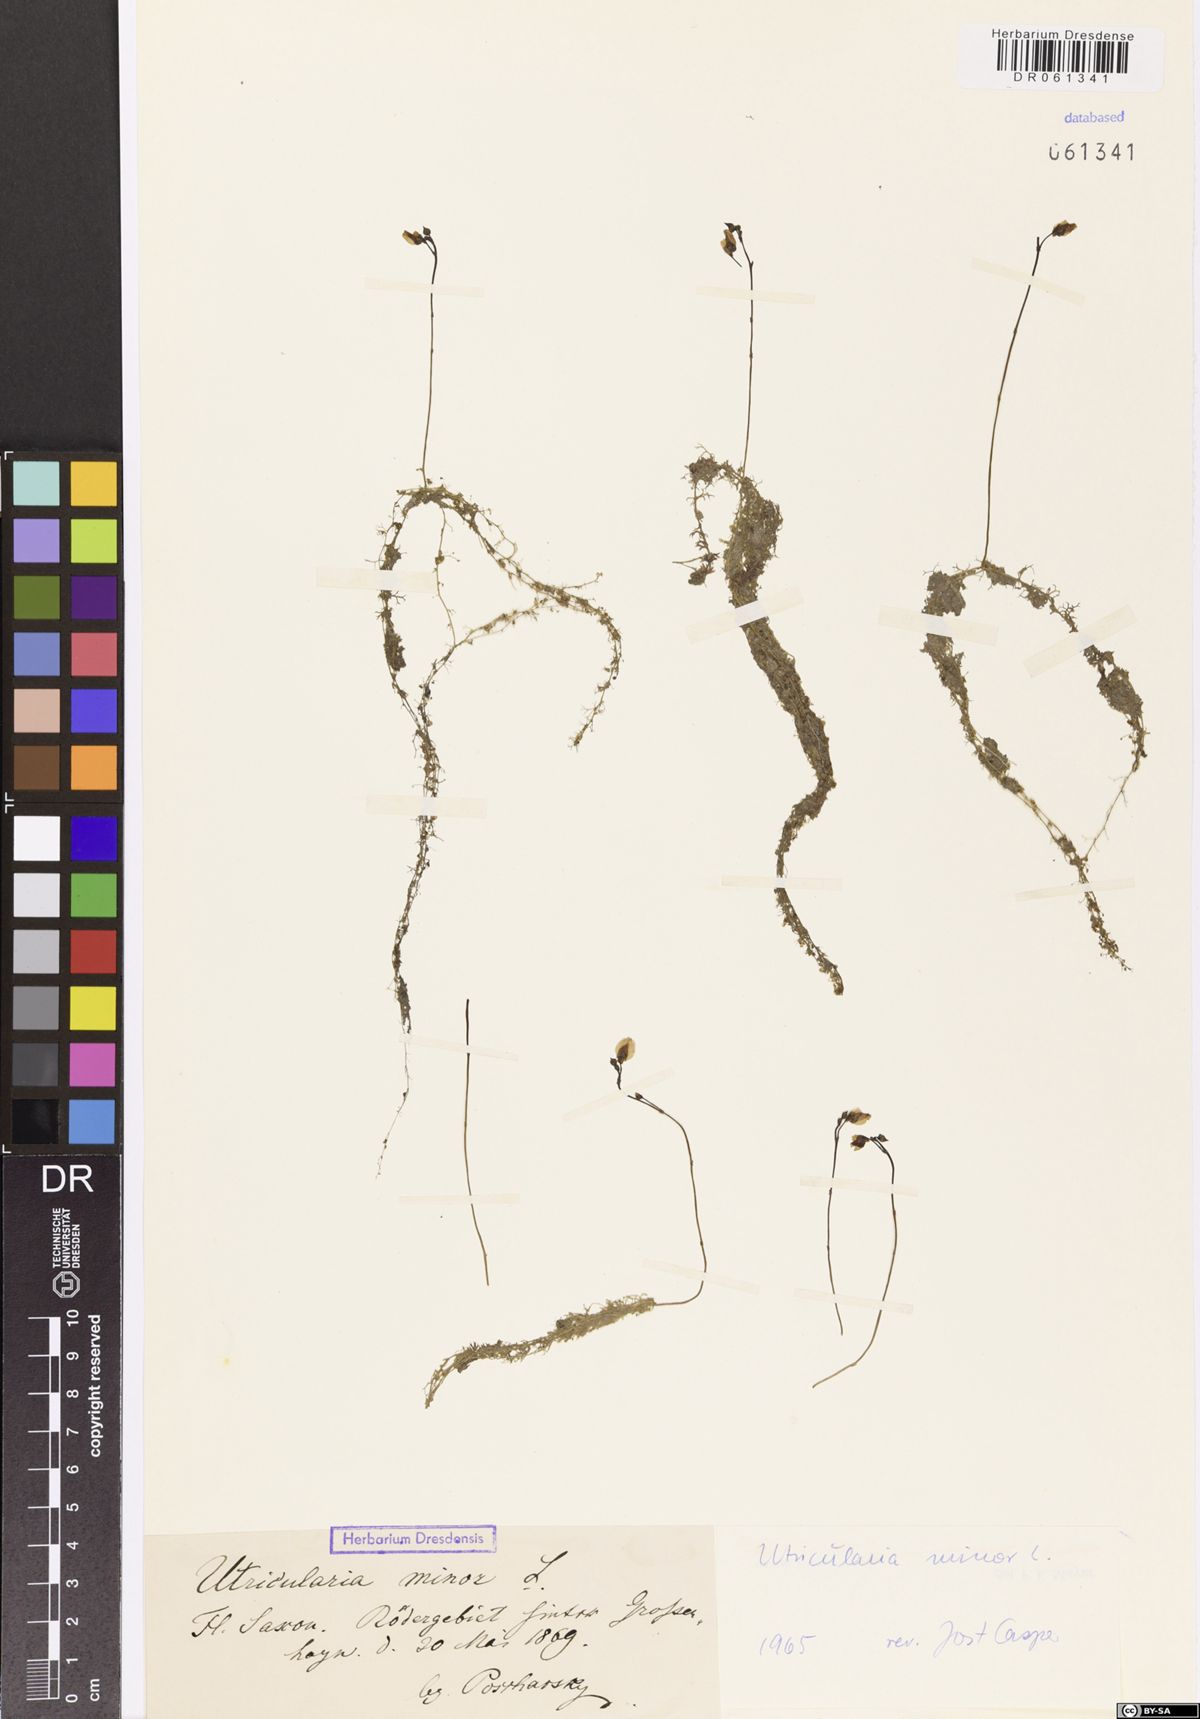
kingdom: Plantae
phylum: Tracheophyta
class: Magnoliopsida
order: Lamiales
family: Lentibulariaceae
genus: Utricularia
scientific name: Utricularia minor
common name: Lesser bladderwort
